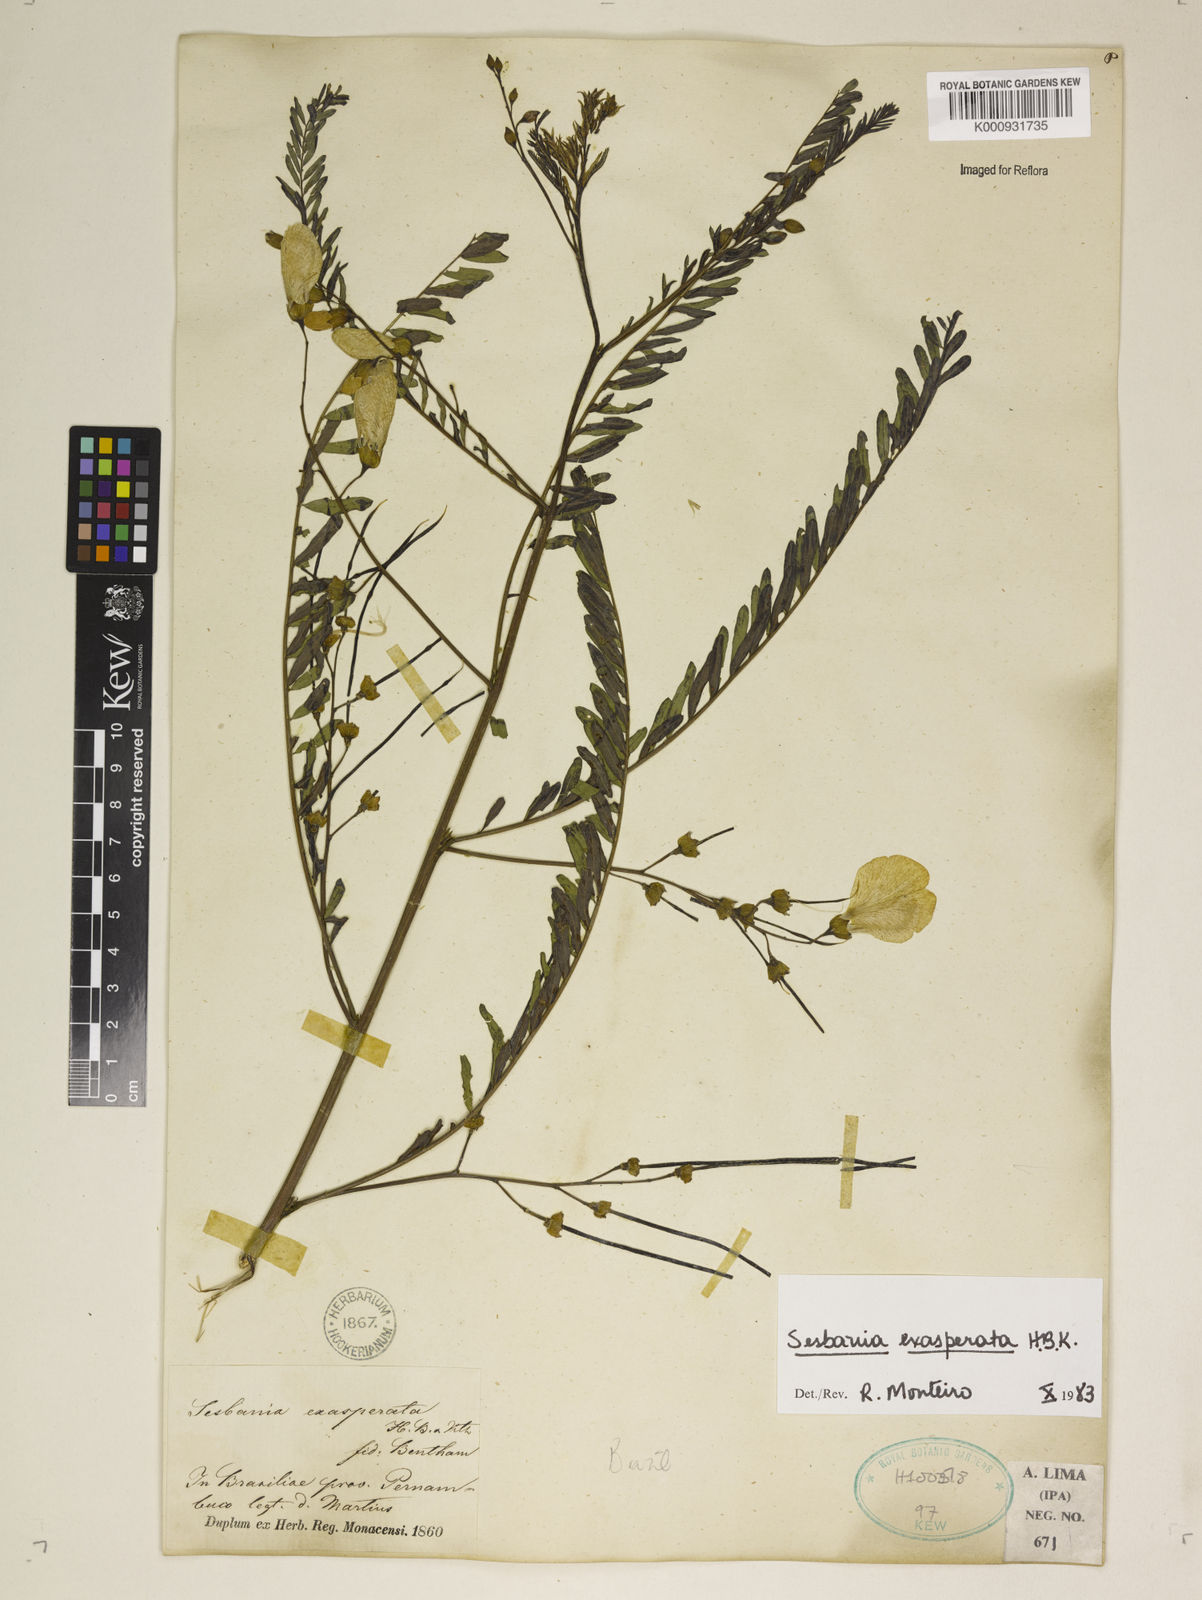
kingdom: Plantae
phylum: Tracheophyta
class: Magnoliopsida
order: Fabales
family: Fabaceae
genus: Sesbania
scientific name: Sesbania exasperata
